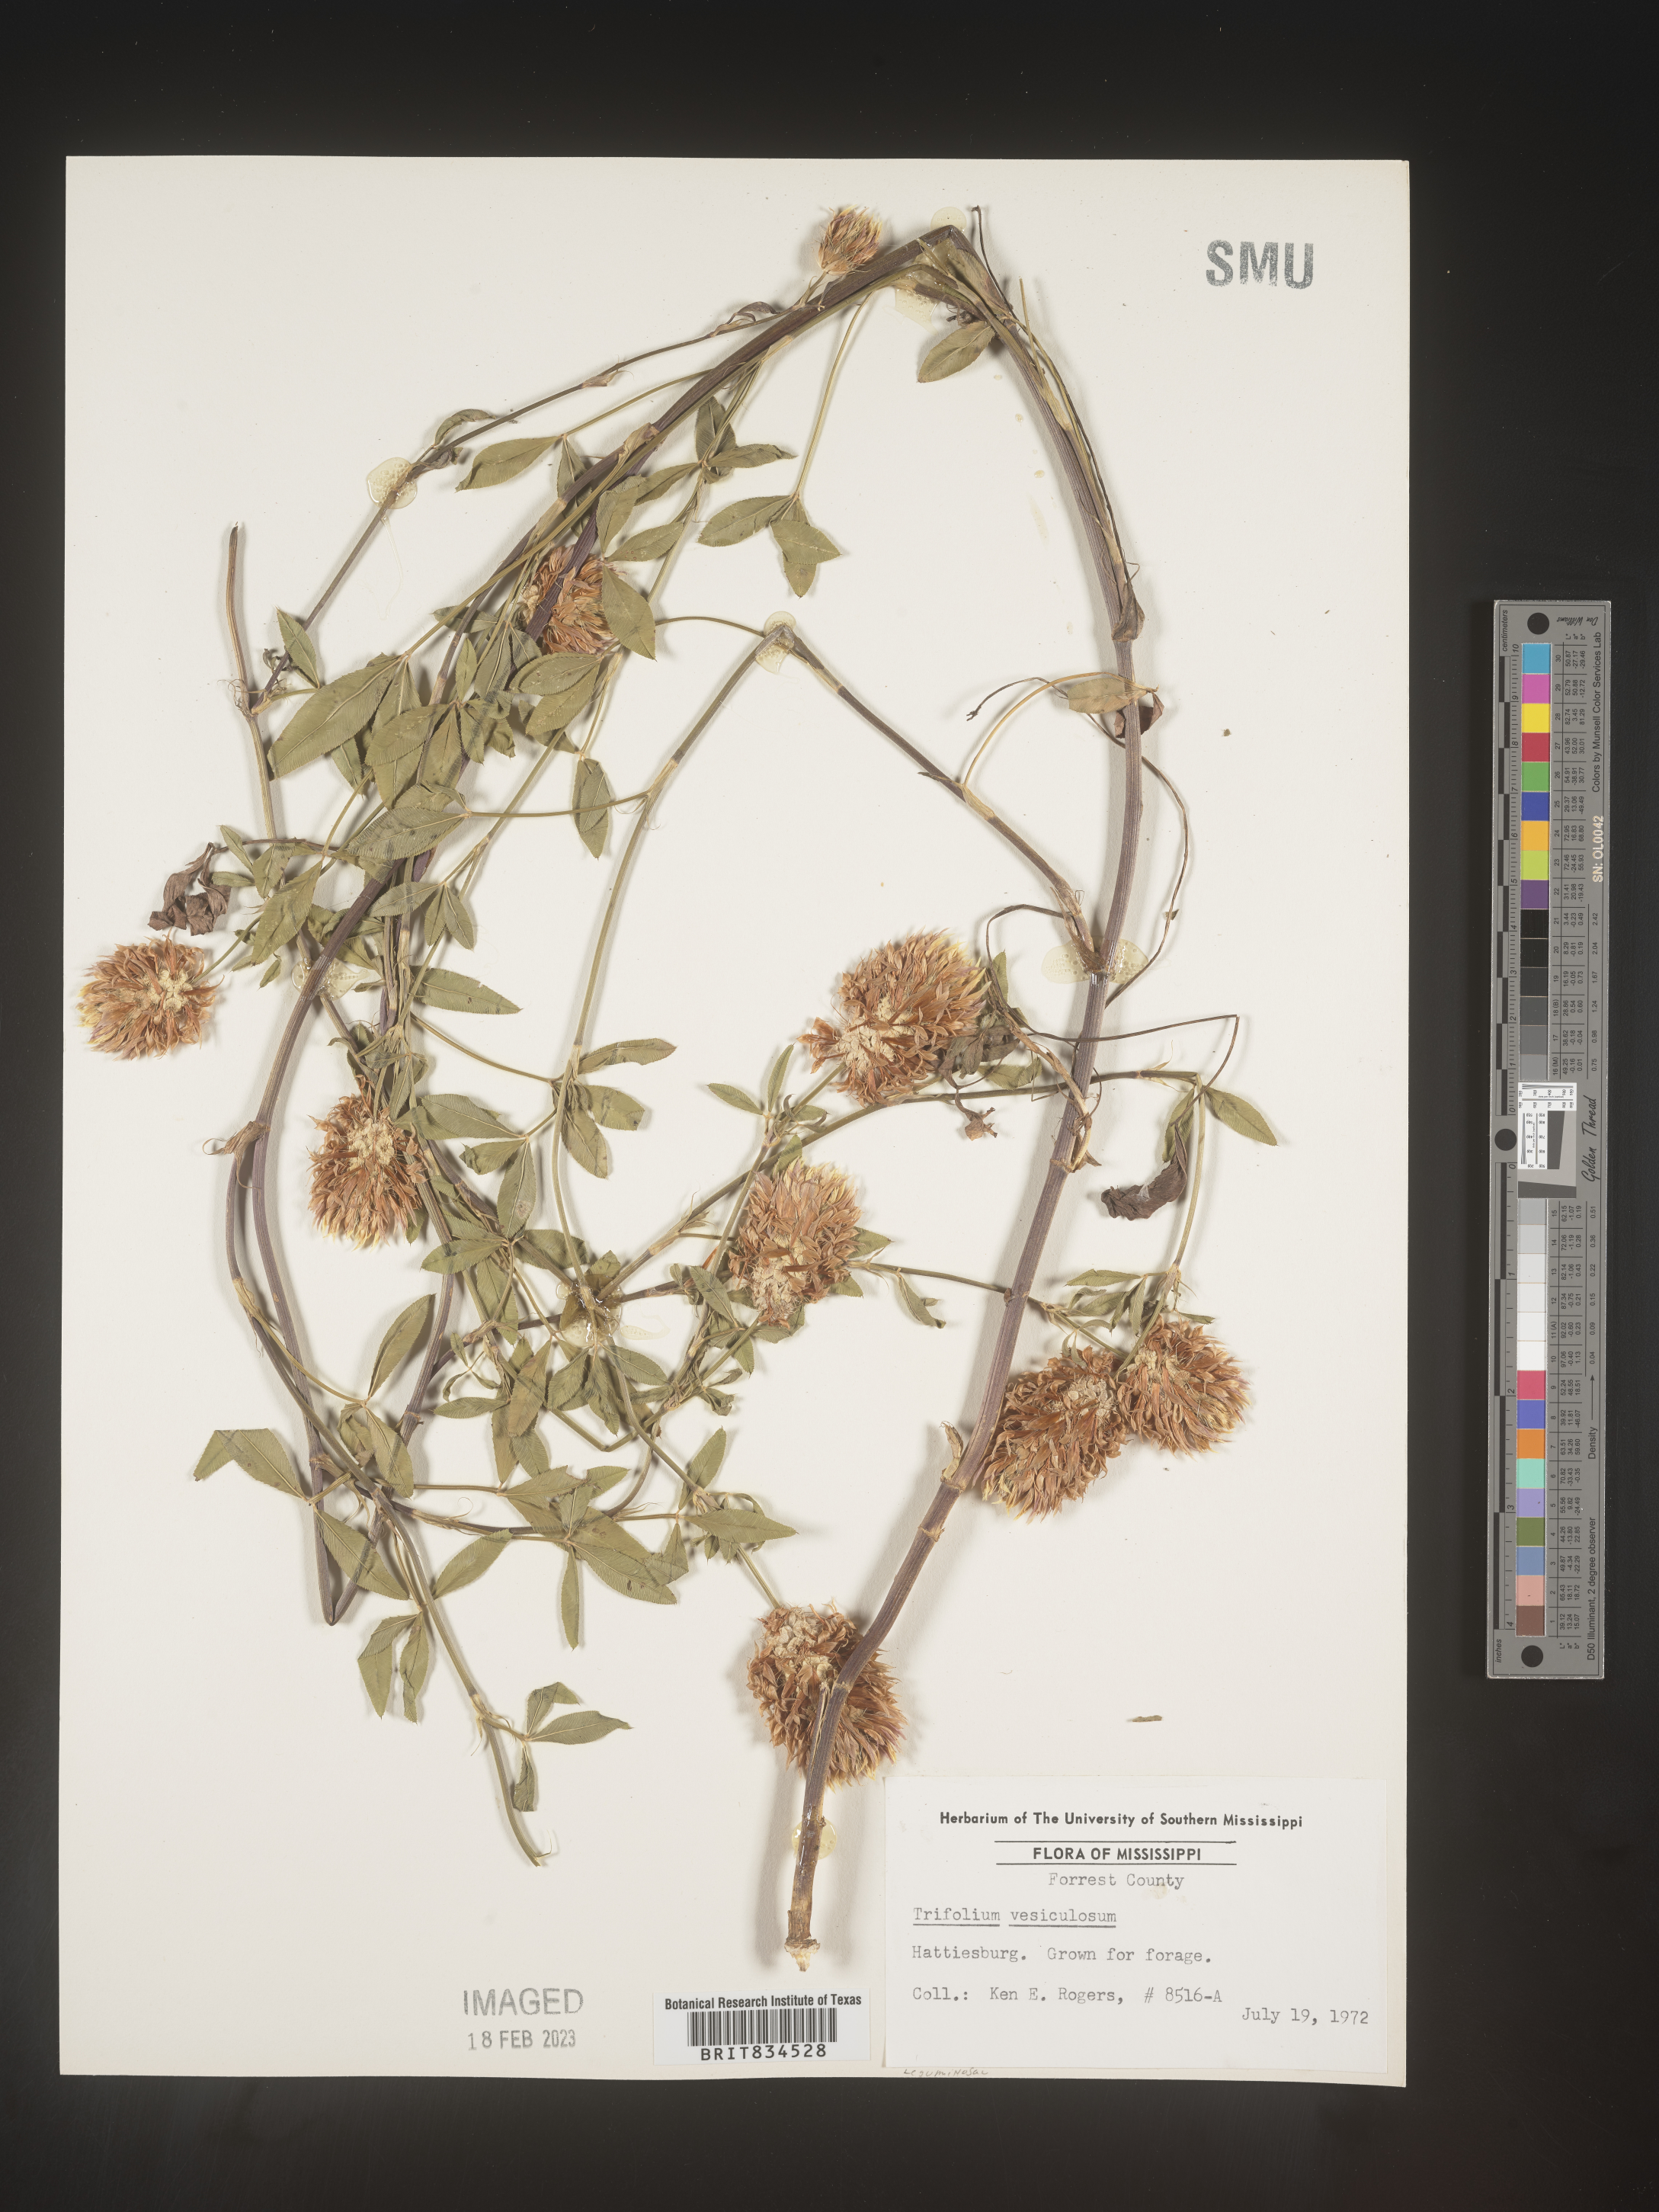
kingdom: Plantae
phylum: Tracheophyta
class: Magnoliopsida
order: Fabales
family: Fabaceae
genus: Trifolium
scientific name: Trifolium
